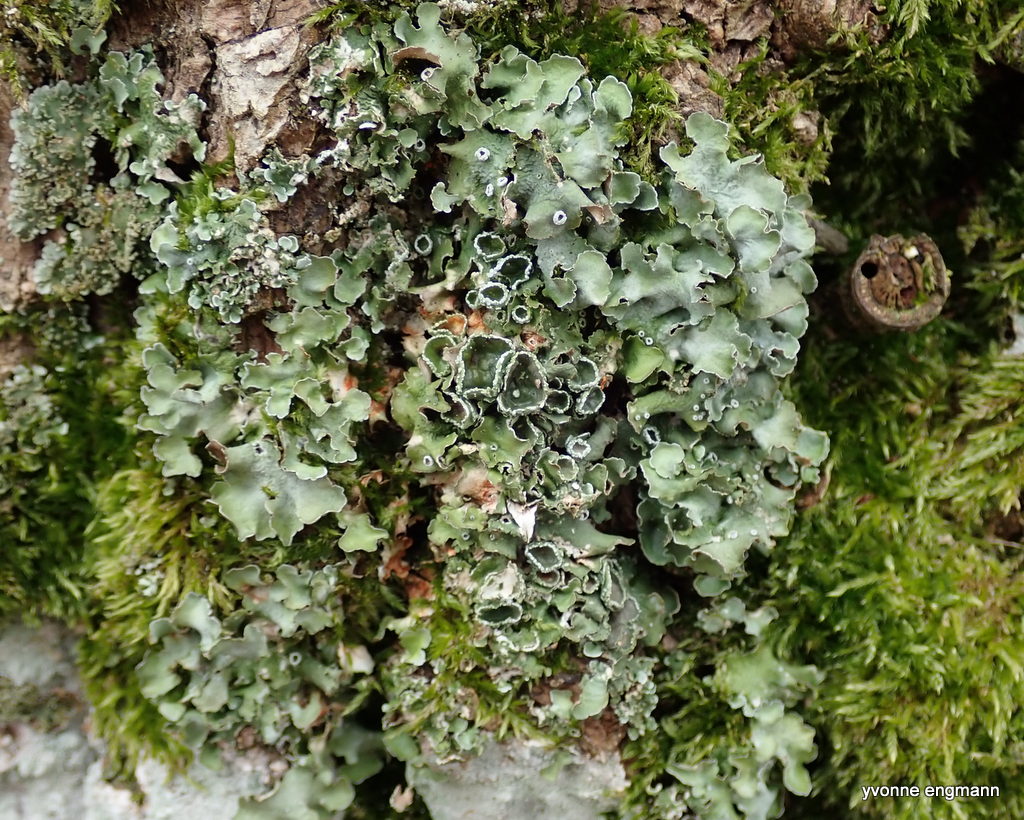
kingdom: Fungi
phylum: Ascomycota
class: Lecanoromycetes
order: Lecanorales
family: Parmeliaceae
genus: Pleurosticta
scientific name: Pleurosticta acetabulum
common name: stor skållav
